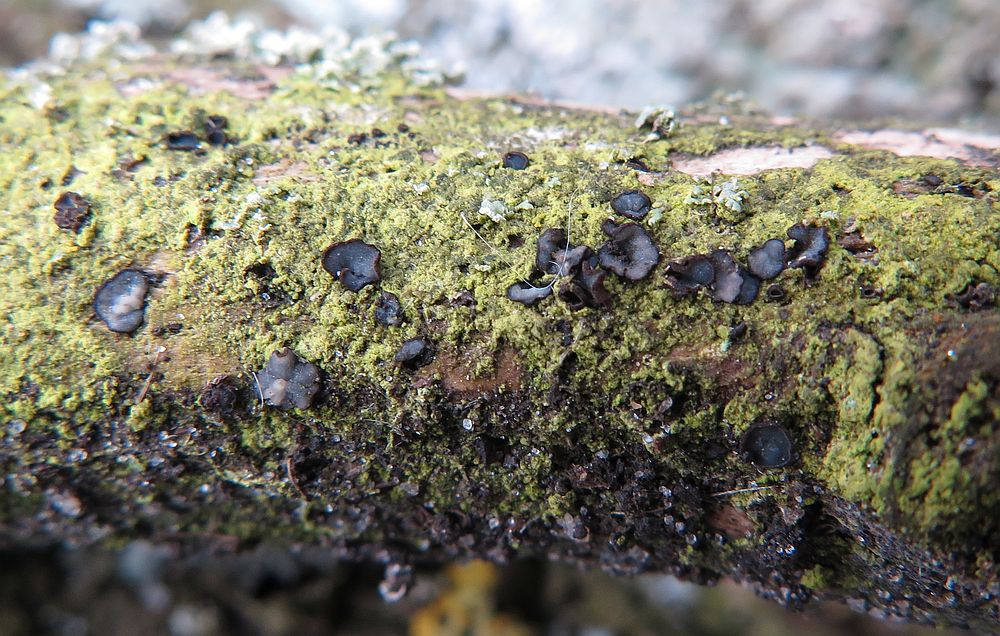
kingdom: Fungi
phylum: Ascomycota
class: Leotiomycetes
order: Helotiales
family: Mollisiaceae
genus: Mollisia
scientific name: Mollisia ligni
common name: ved-gråskive
